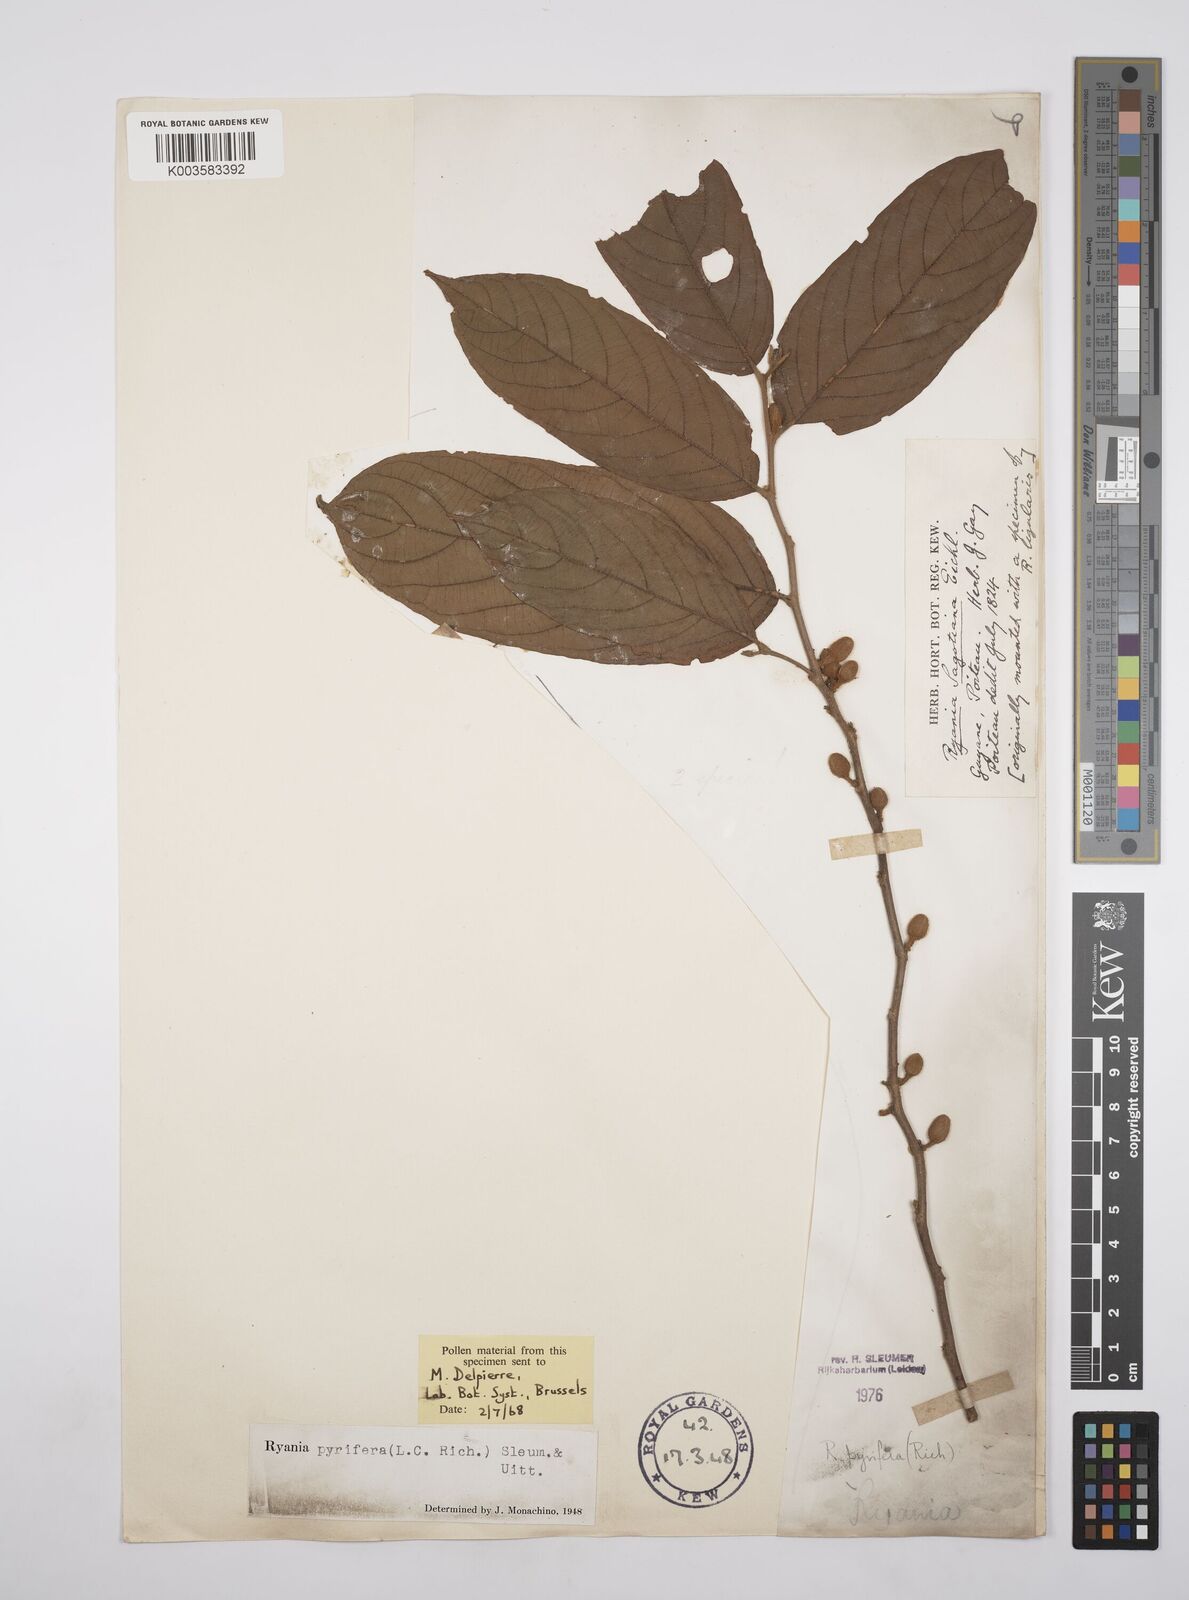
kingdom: Plantae
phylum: Tracheophyta
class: Magnoliopsida
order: Malpighiales
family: Salicaceae
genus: Ryania
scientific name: Ryania pyrifera
